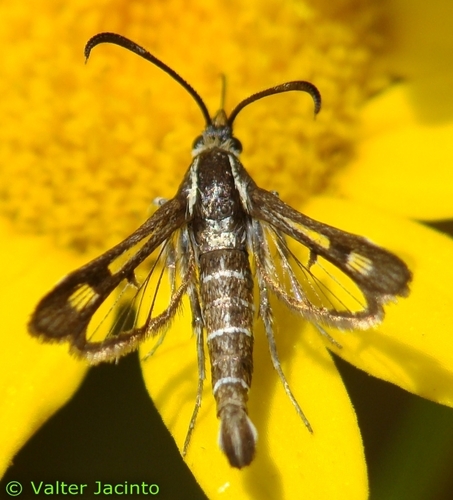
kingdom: Animalia
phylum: Arthropoda
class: Insecta
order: Lepidoptera
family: Sesiidae
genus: Pyropteron
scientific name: Pyropteron meriaeformis
